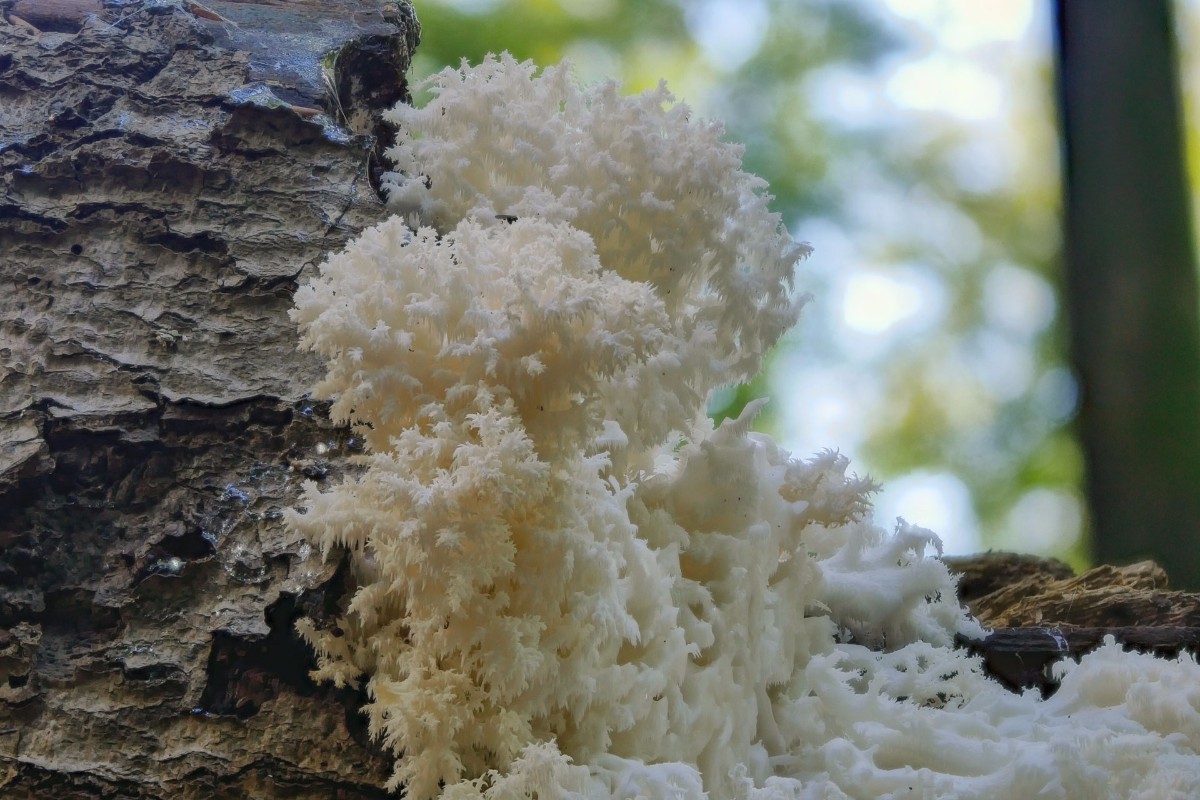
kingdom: Fungi
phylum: Basidiomycota
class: Agaricomycetes
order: Russulales
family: Hericiaceae
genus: Hericium
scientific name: Hericium coralloides
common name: koralpigsvamp
